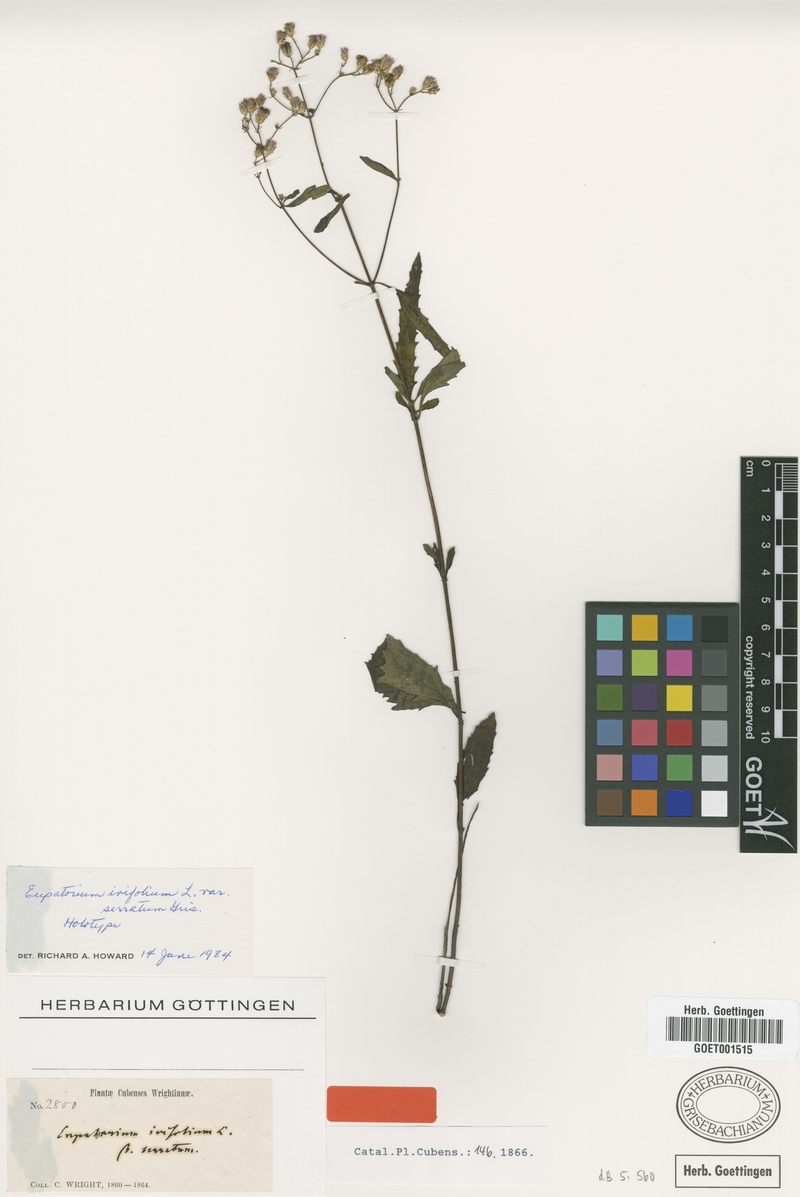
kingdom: Plantae
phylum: Tracheophyta
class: Magnoliopsida
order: Asterales
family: Asteraceae
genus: Chromolaena
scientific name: Chromolaena ivifolia
